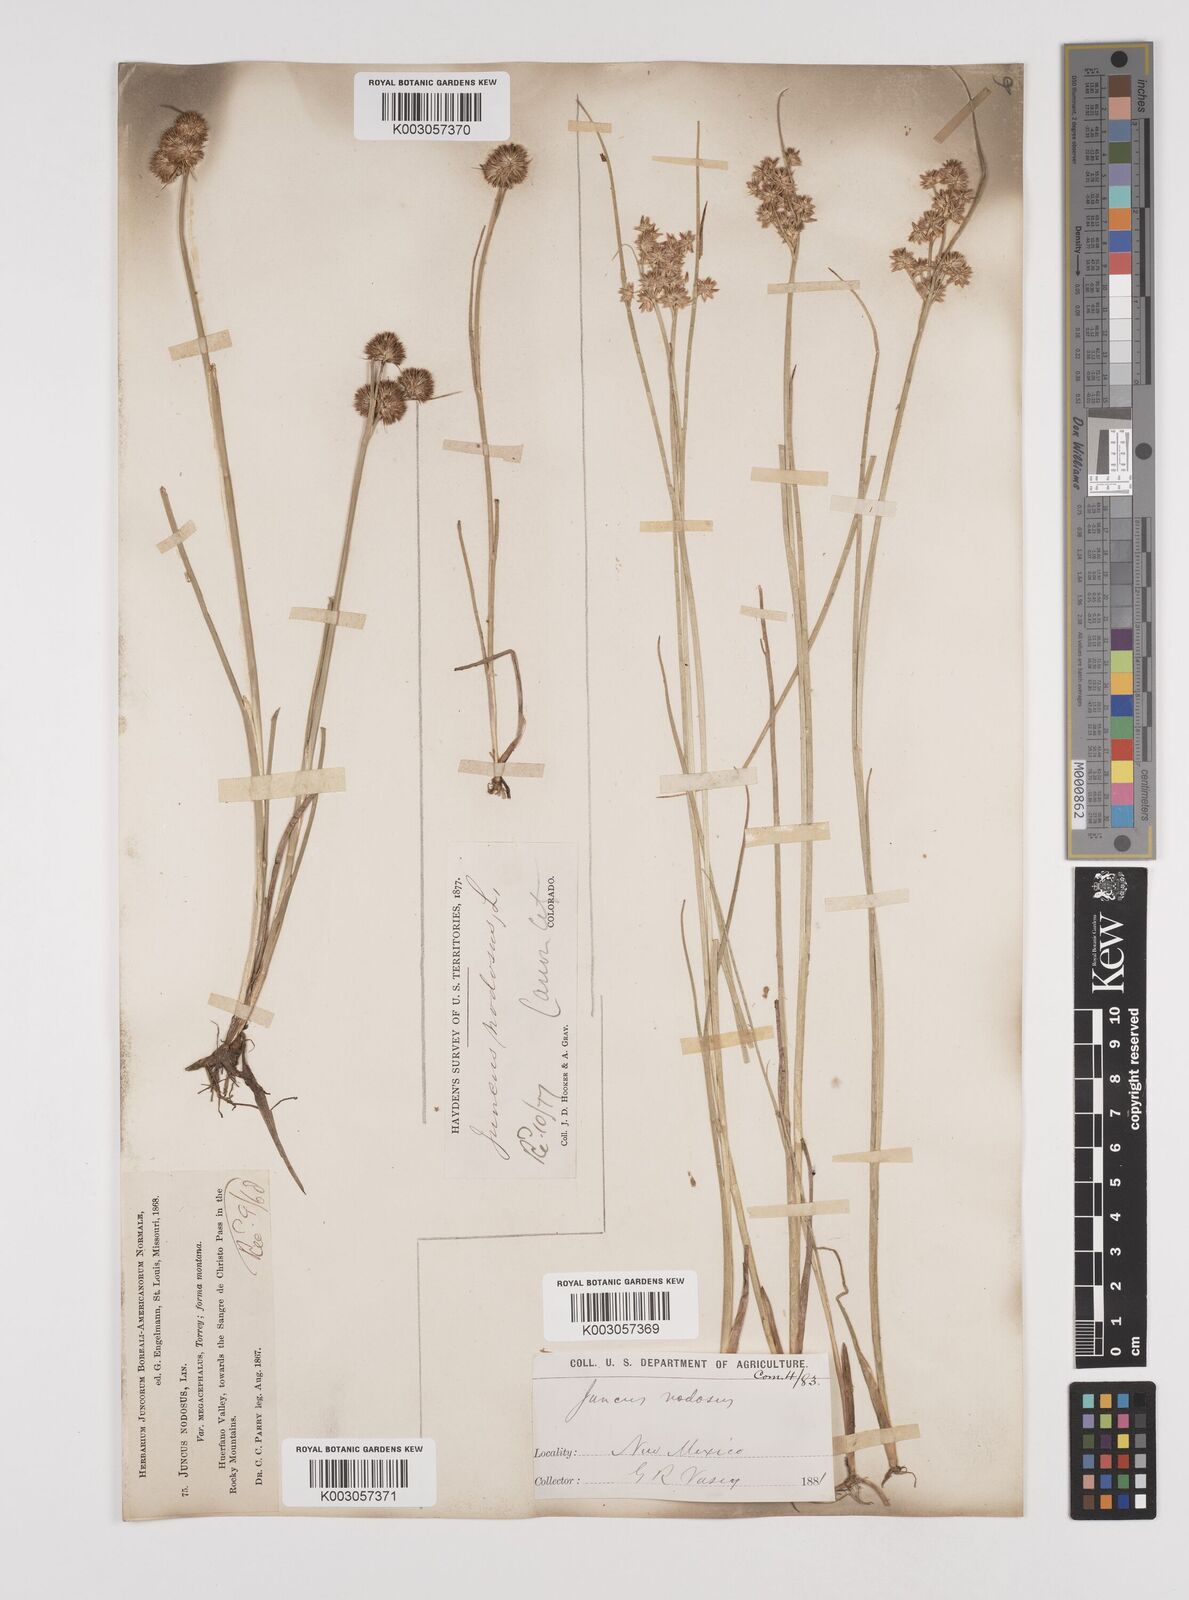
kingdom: Plantae
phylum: Tracheophyta
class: Liliopsida
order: Poales
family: Juncaceae
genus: Juncus
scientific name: Juncus nodosus
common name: Knotted rush
